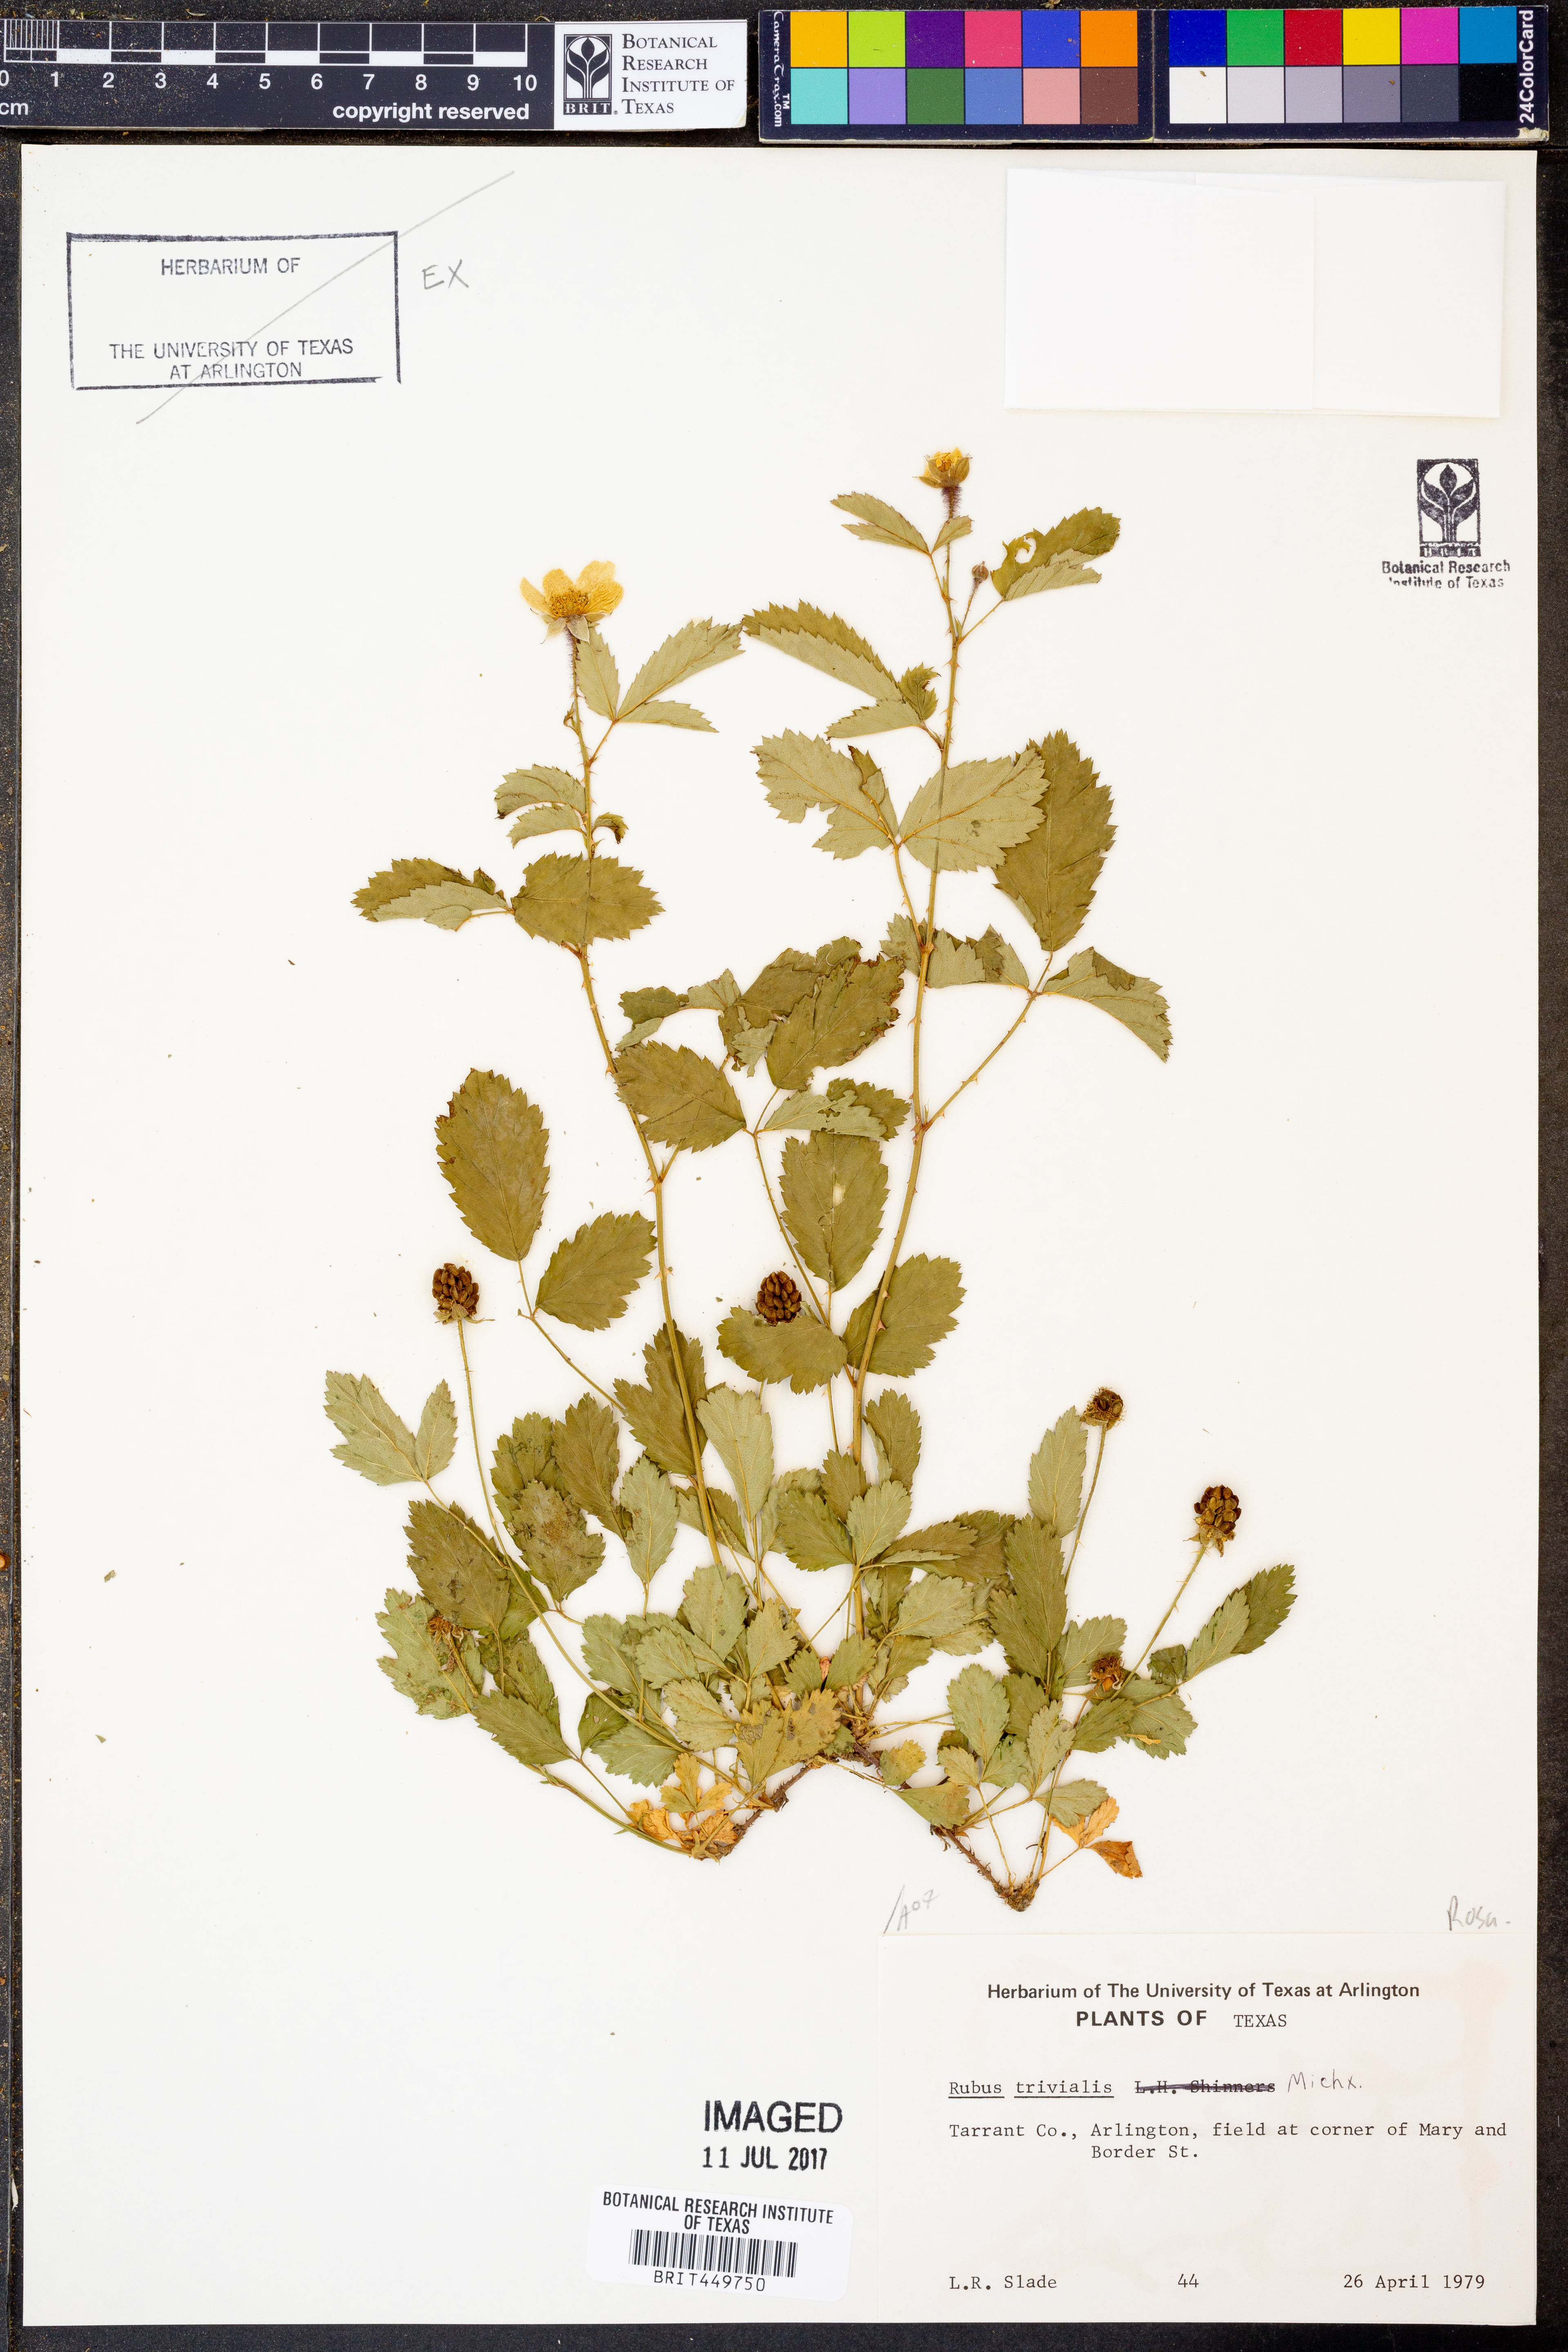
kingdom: Plantae
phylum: Tracheophyta
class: Magnoliopsida
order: Rosales
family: Rosaceae
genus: Rubus
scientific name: Rubus trivialis
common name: Southern dewberry
